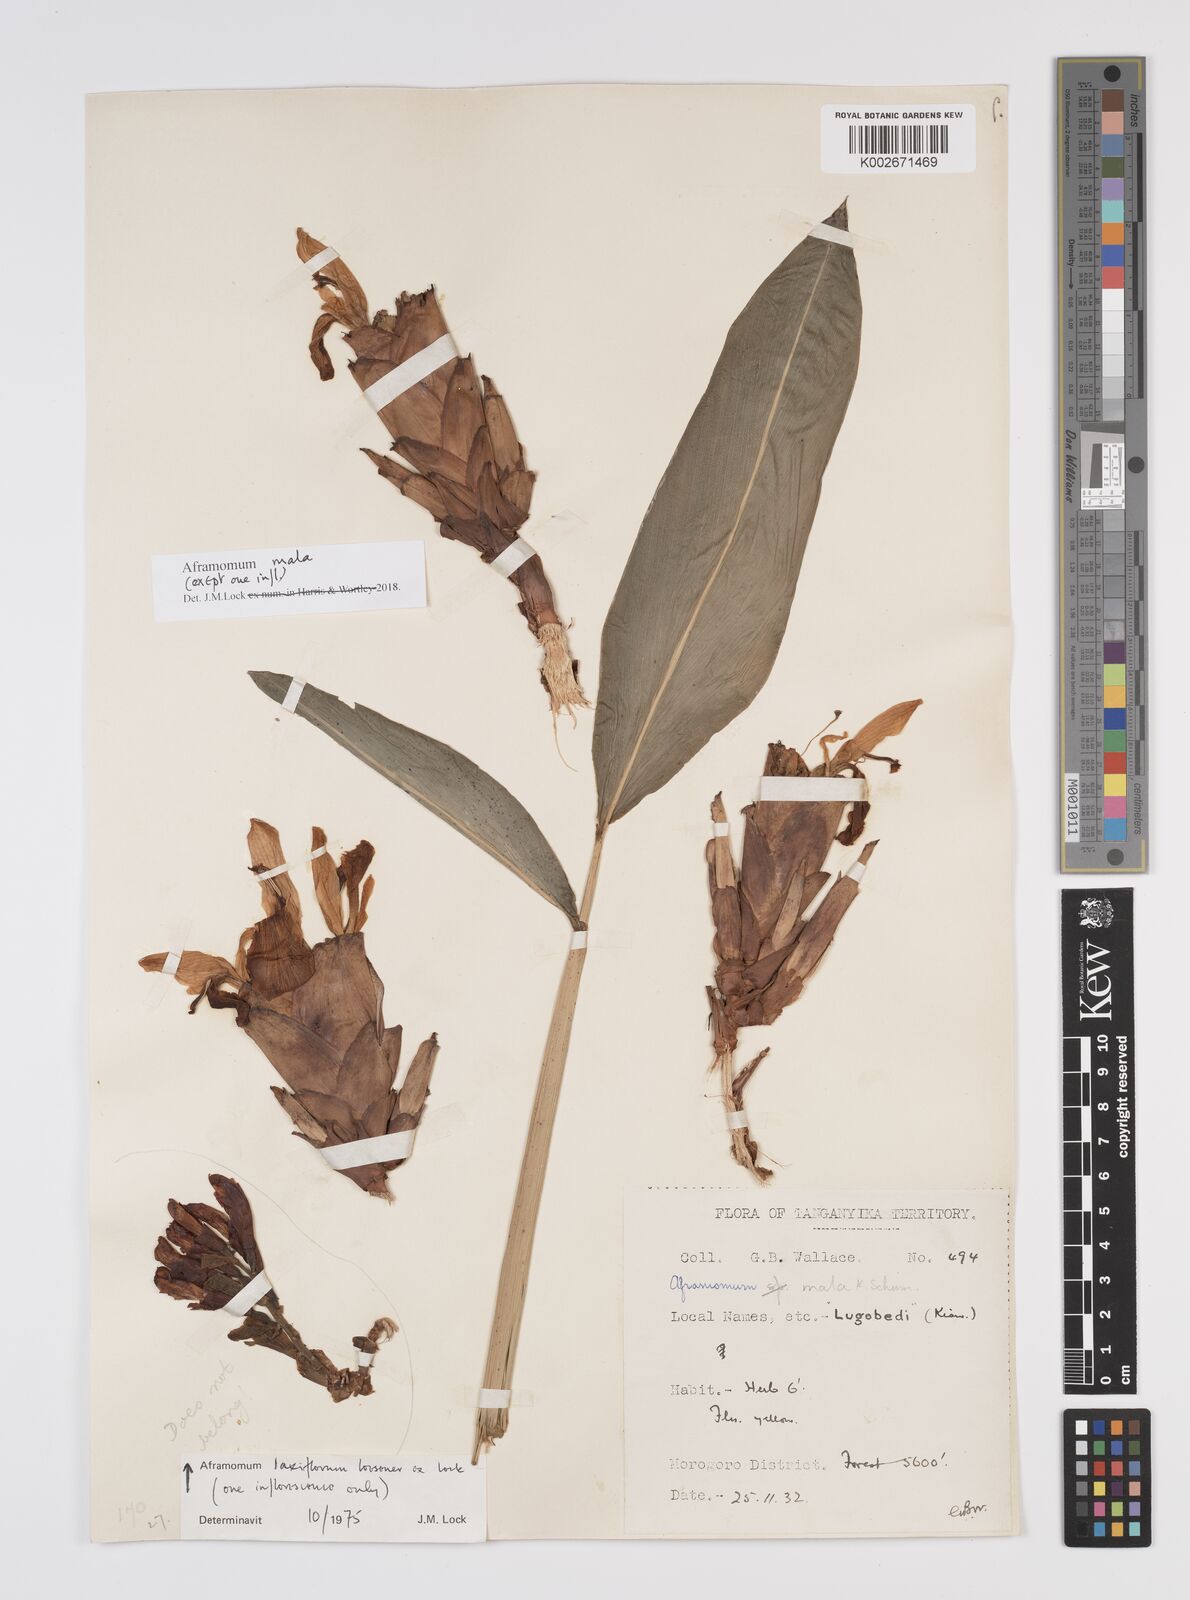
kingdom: Plantae
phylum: Tracheophyta
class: Liliopsida
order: Zingiberales
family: Zingiberaceae
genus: Aframomum
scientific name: Aframomum mala
